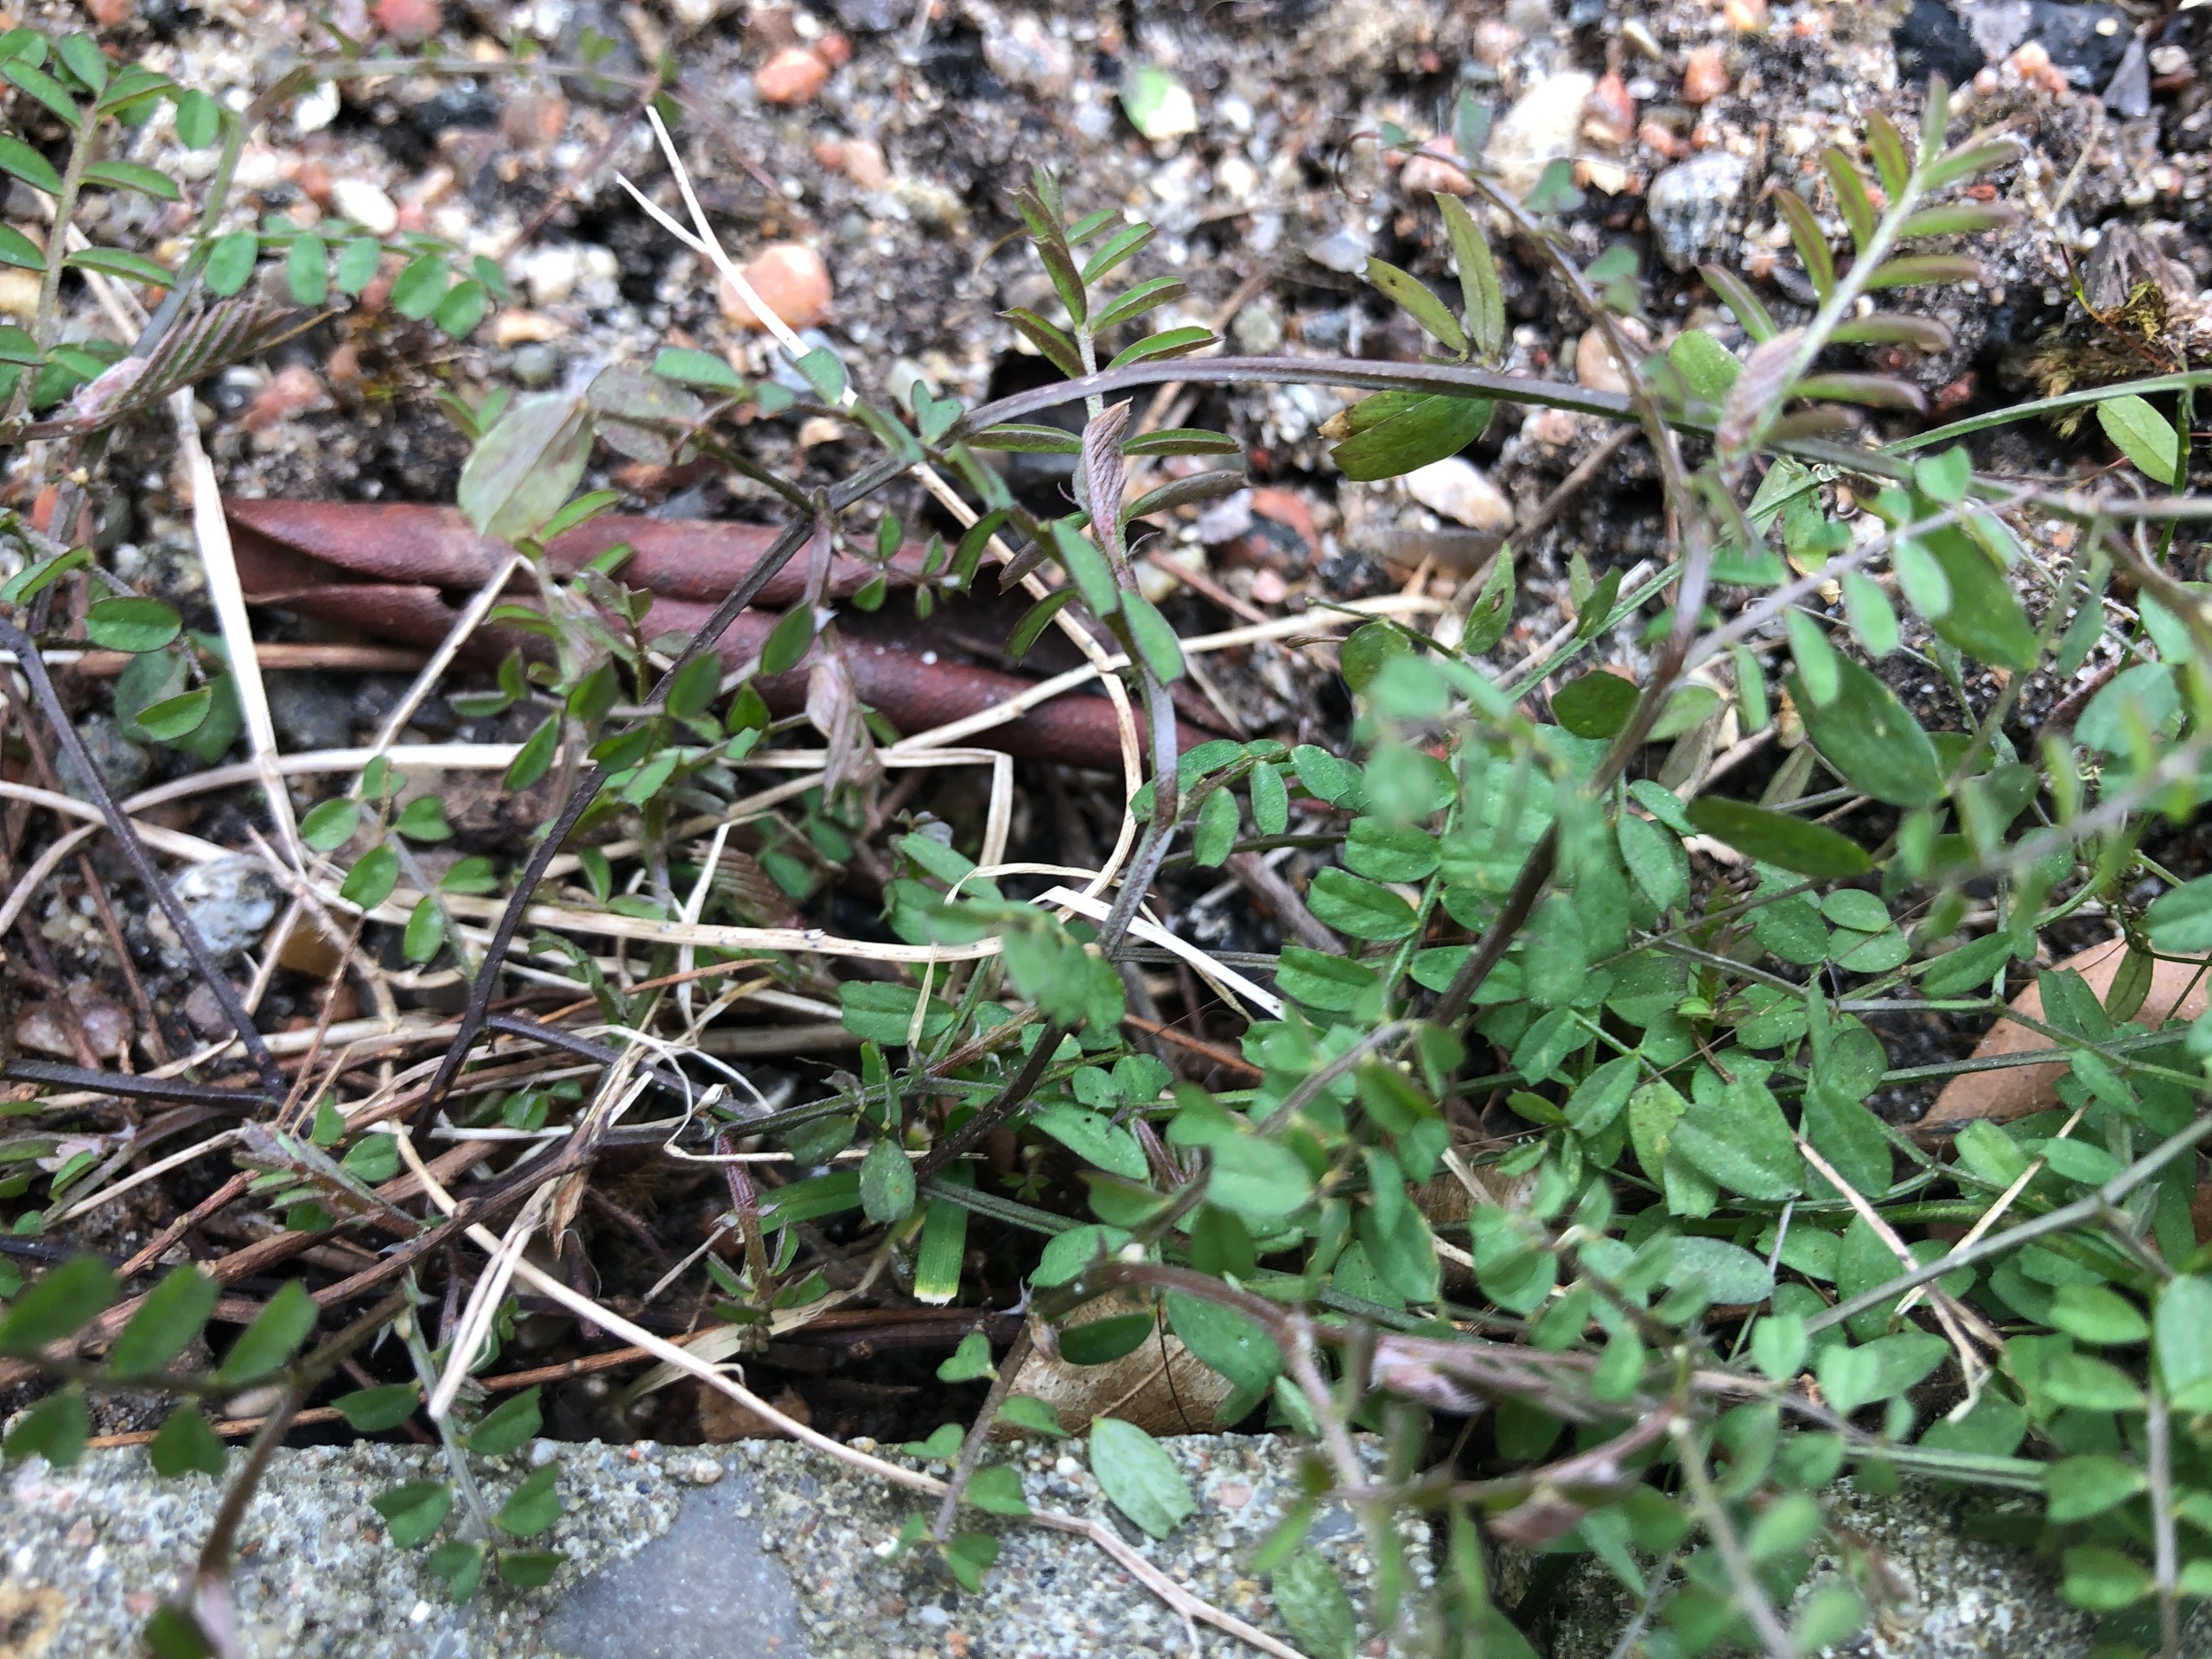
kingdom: Plantae
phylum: Tracheophyta
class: Magnoliopsida
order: Fabales
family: Fabaceae
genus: Vicia
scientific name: Vicia sylvatica
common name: Skov-vikke
